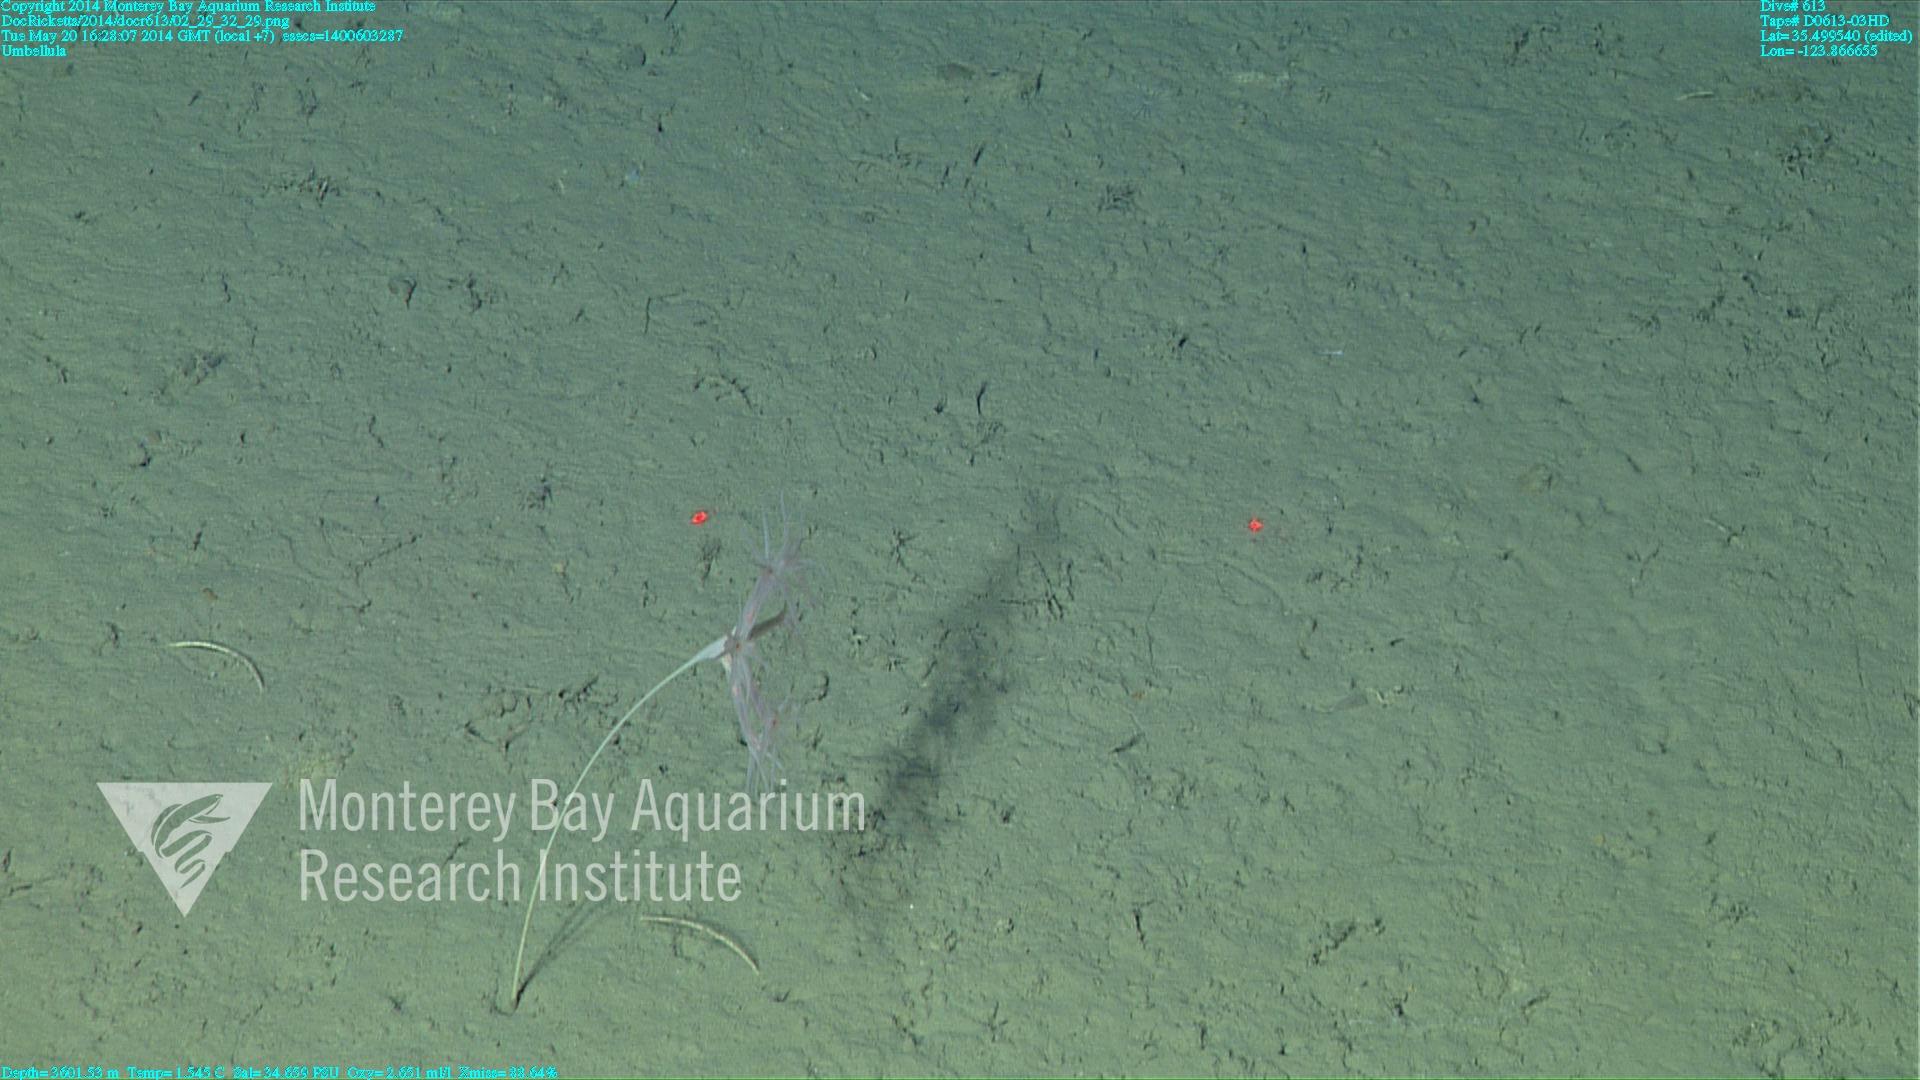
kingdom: Animalia
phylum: Cnidaria
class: Anthozoa
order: Scleralcyonacea
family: Umbellulidae
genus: Umbellula
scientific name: Umbellula
